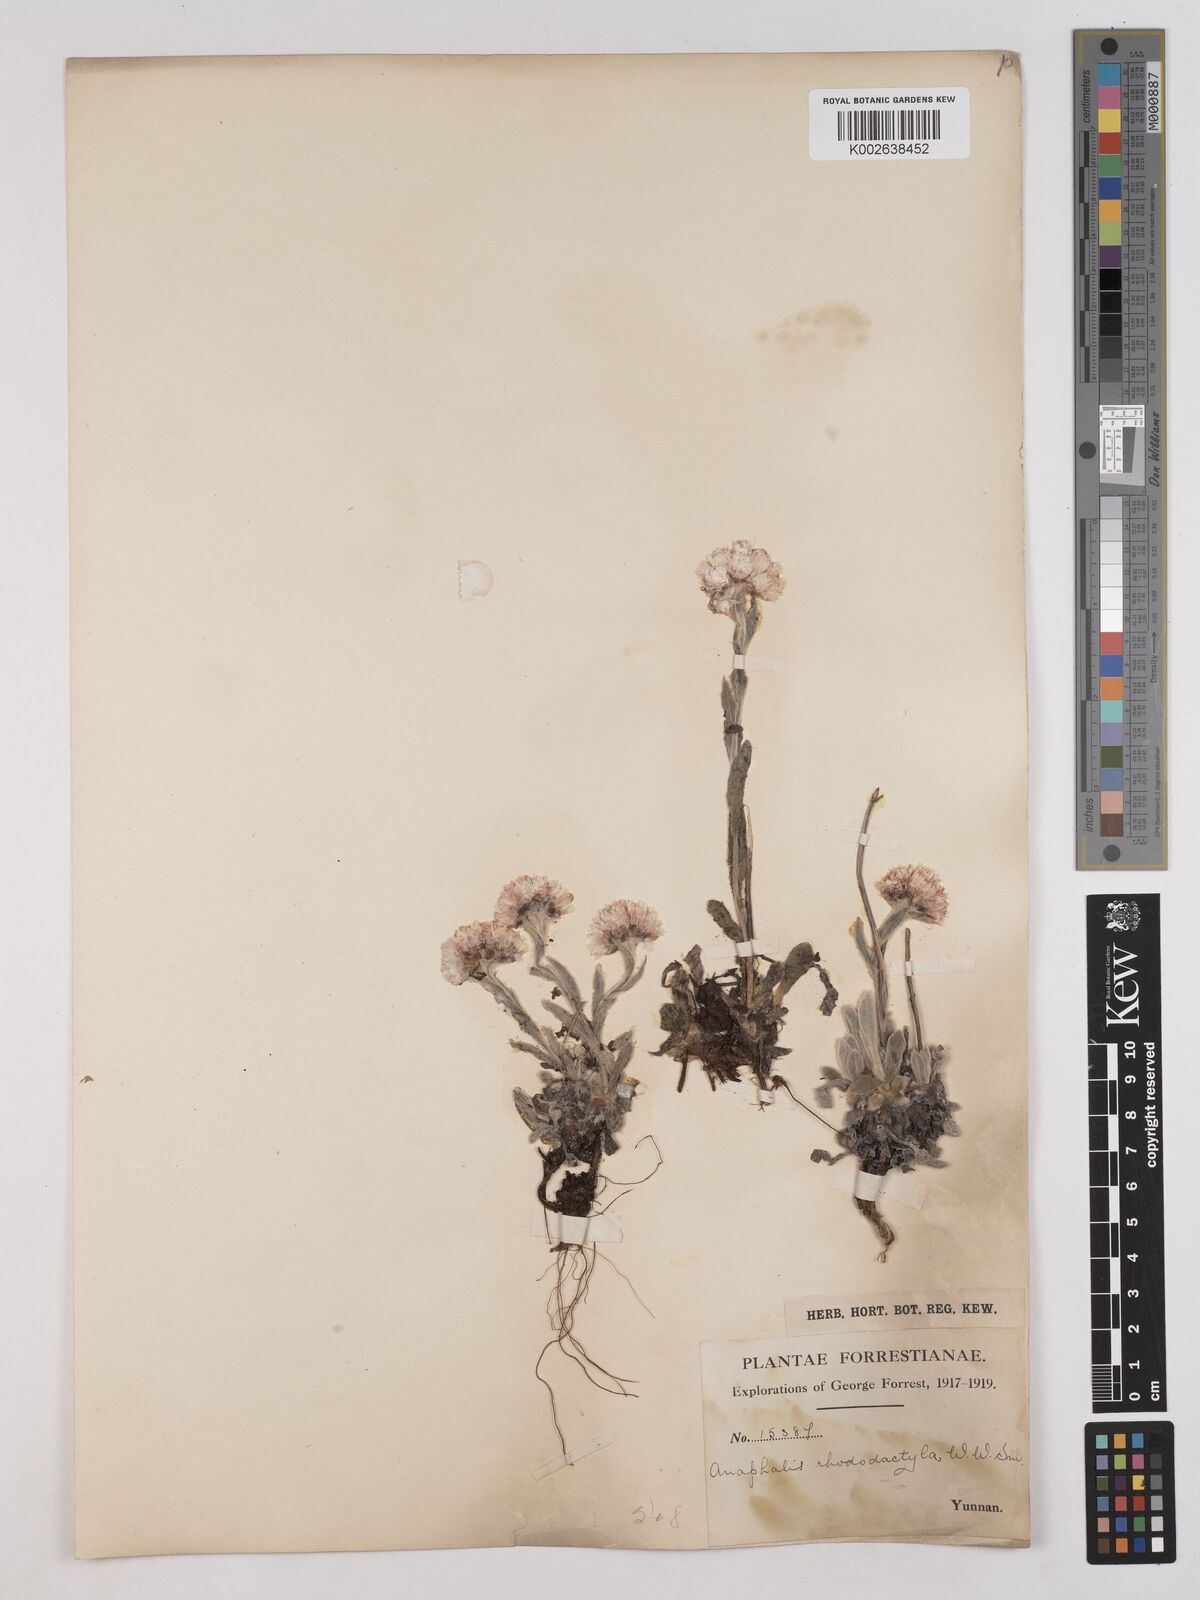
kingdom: Plantae
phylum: Tracheophyta
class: Magnoliopsida
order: Asterales
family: Asteraceae
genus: Anaphalis
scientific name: Anaphalis rhododactyla
